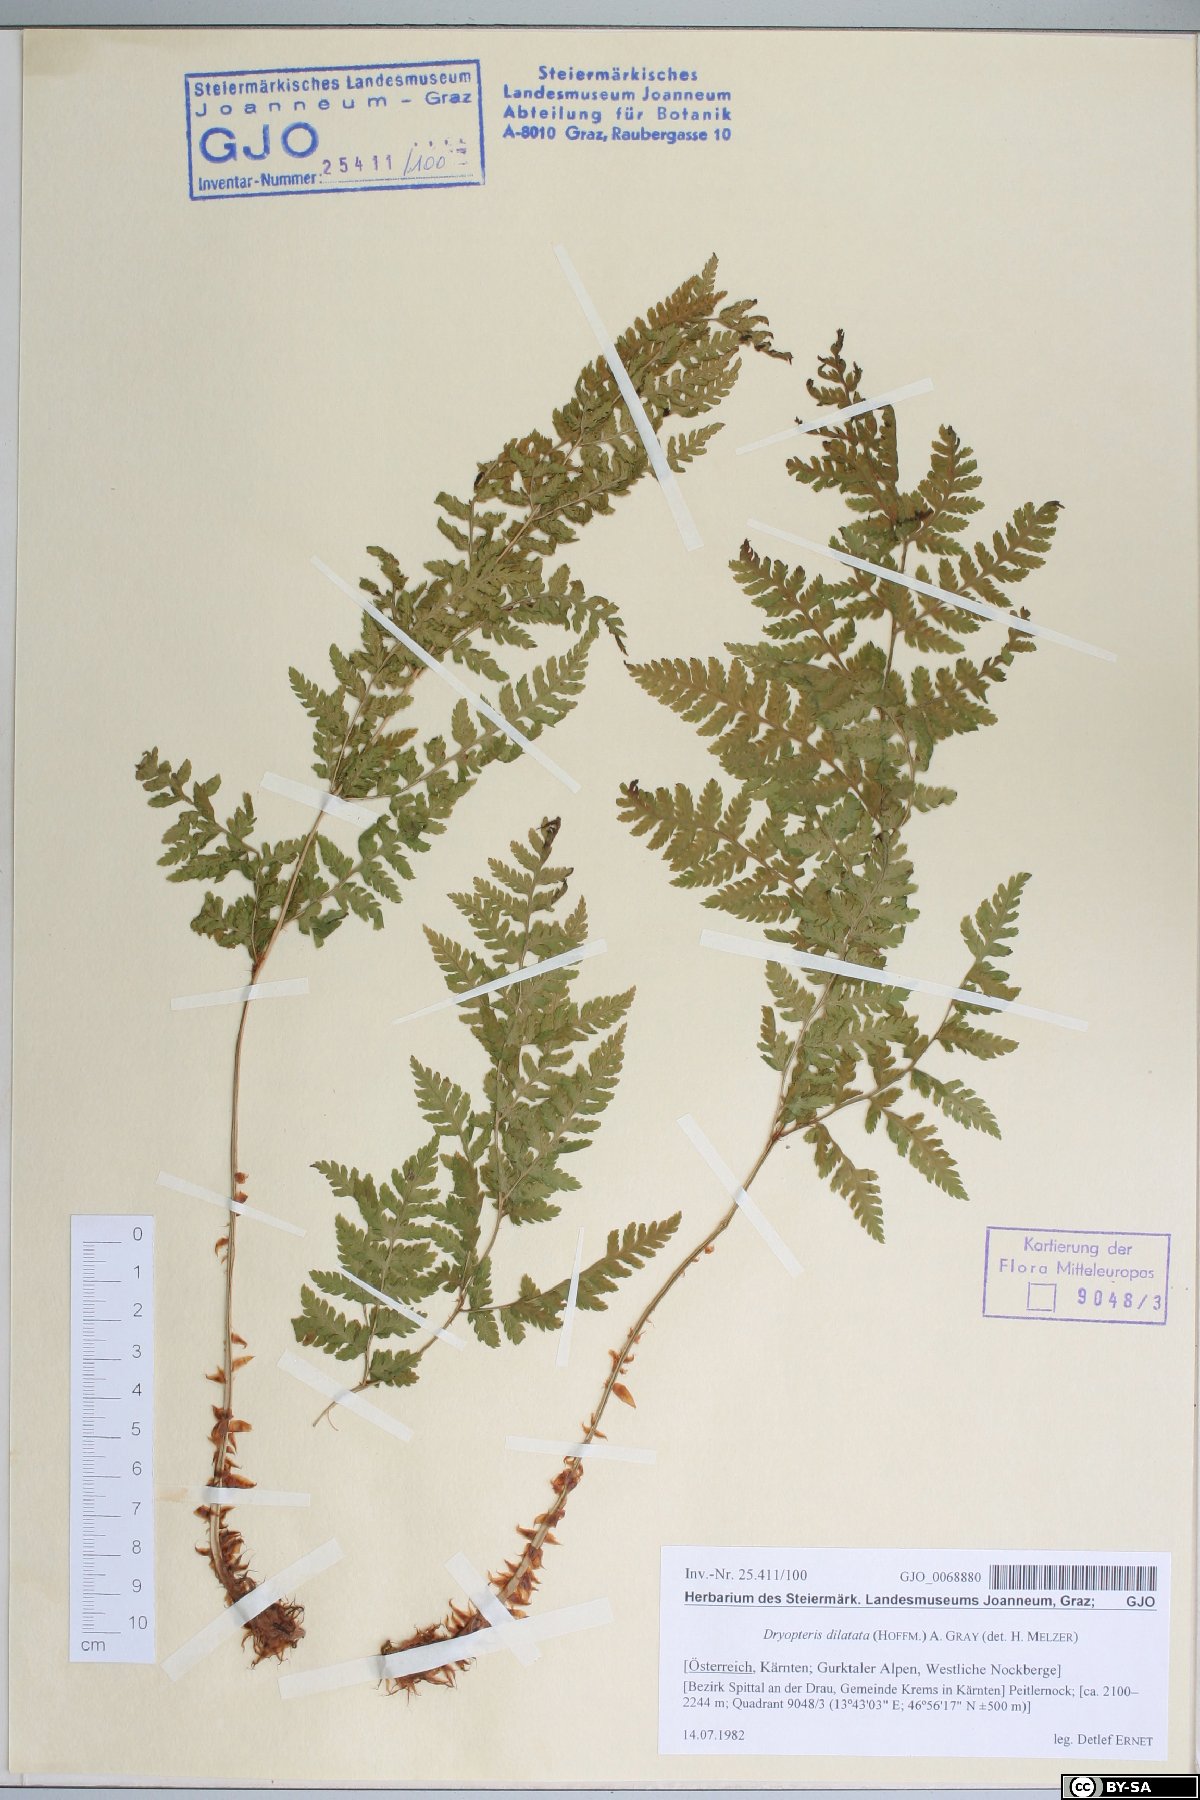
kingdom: Plantae
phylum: Tracheophyta
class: Polypodiopsida
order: Polypodiales
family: Dryopteridaceae
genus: Dryopteris
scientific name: Dryopteris dilatata
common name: Broad buckler-fern
